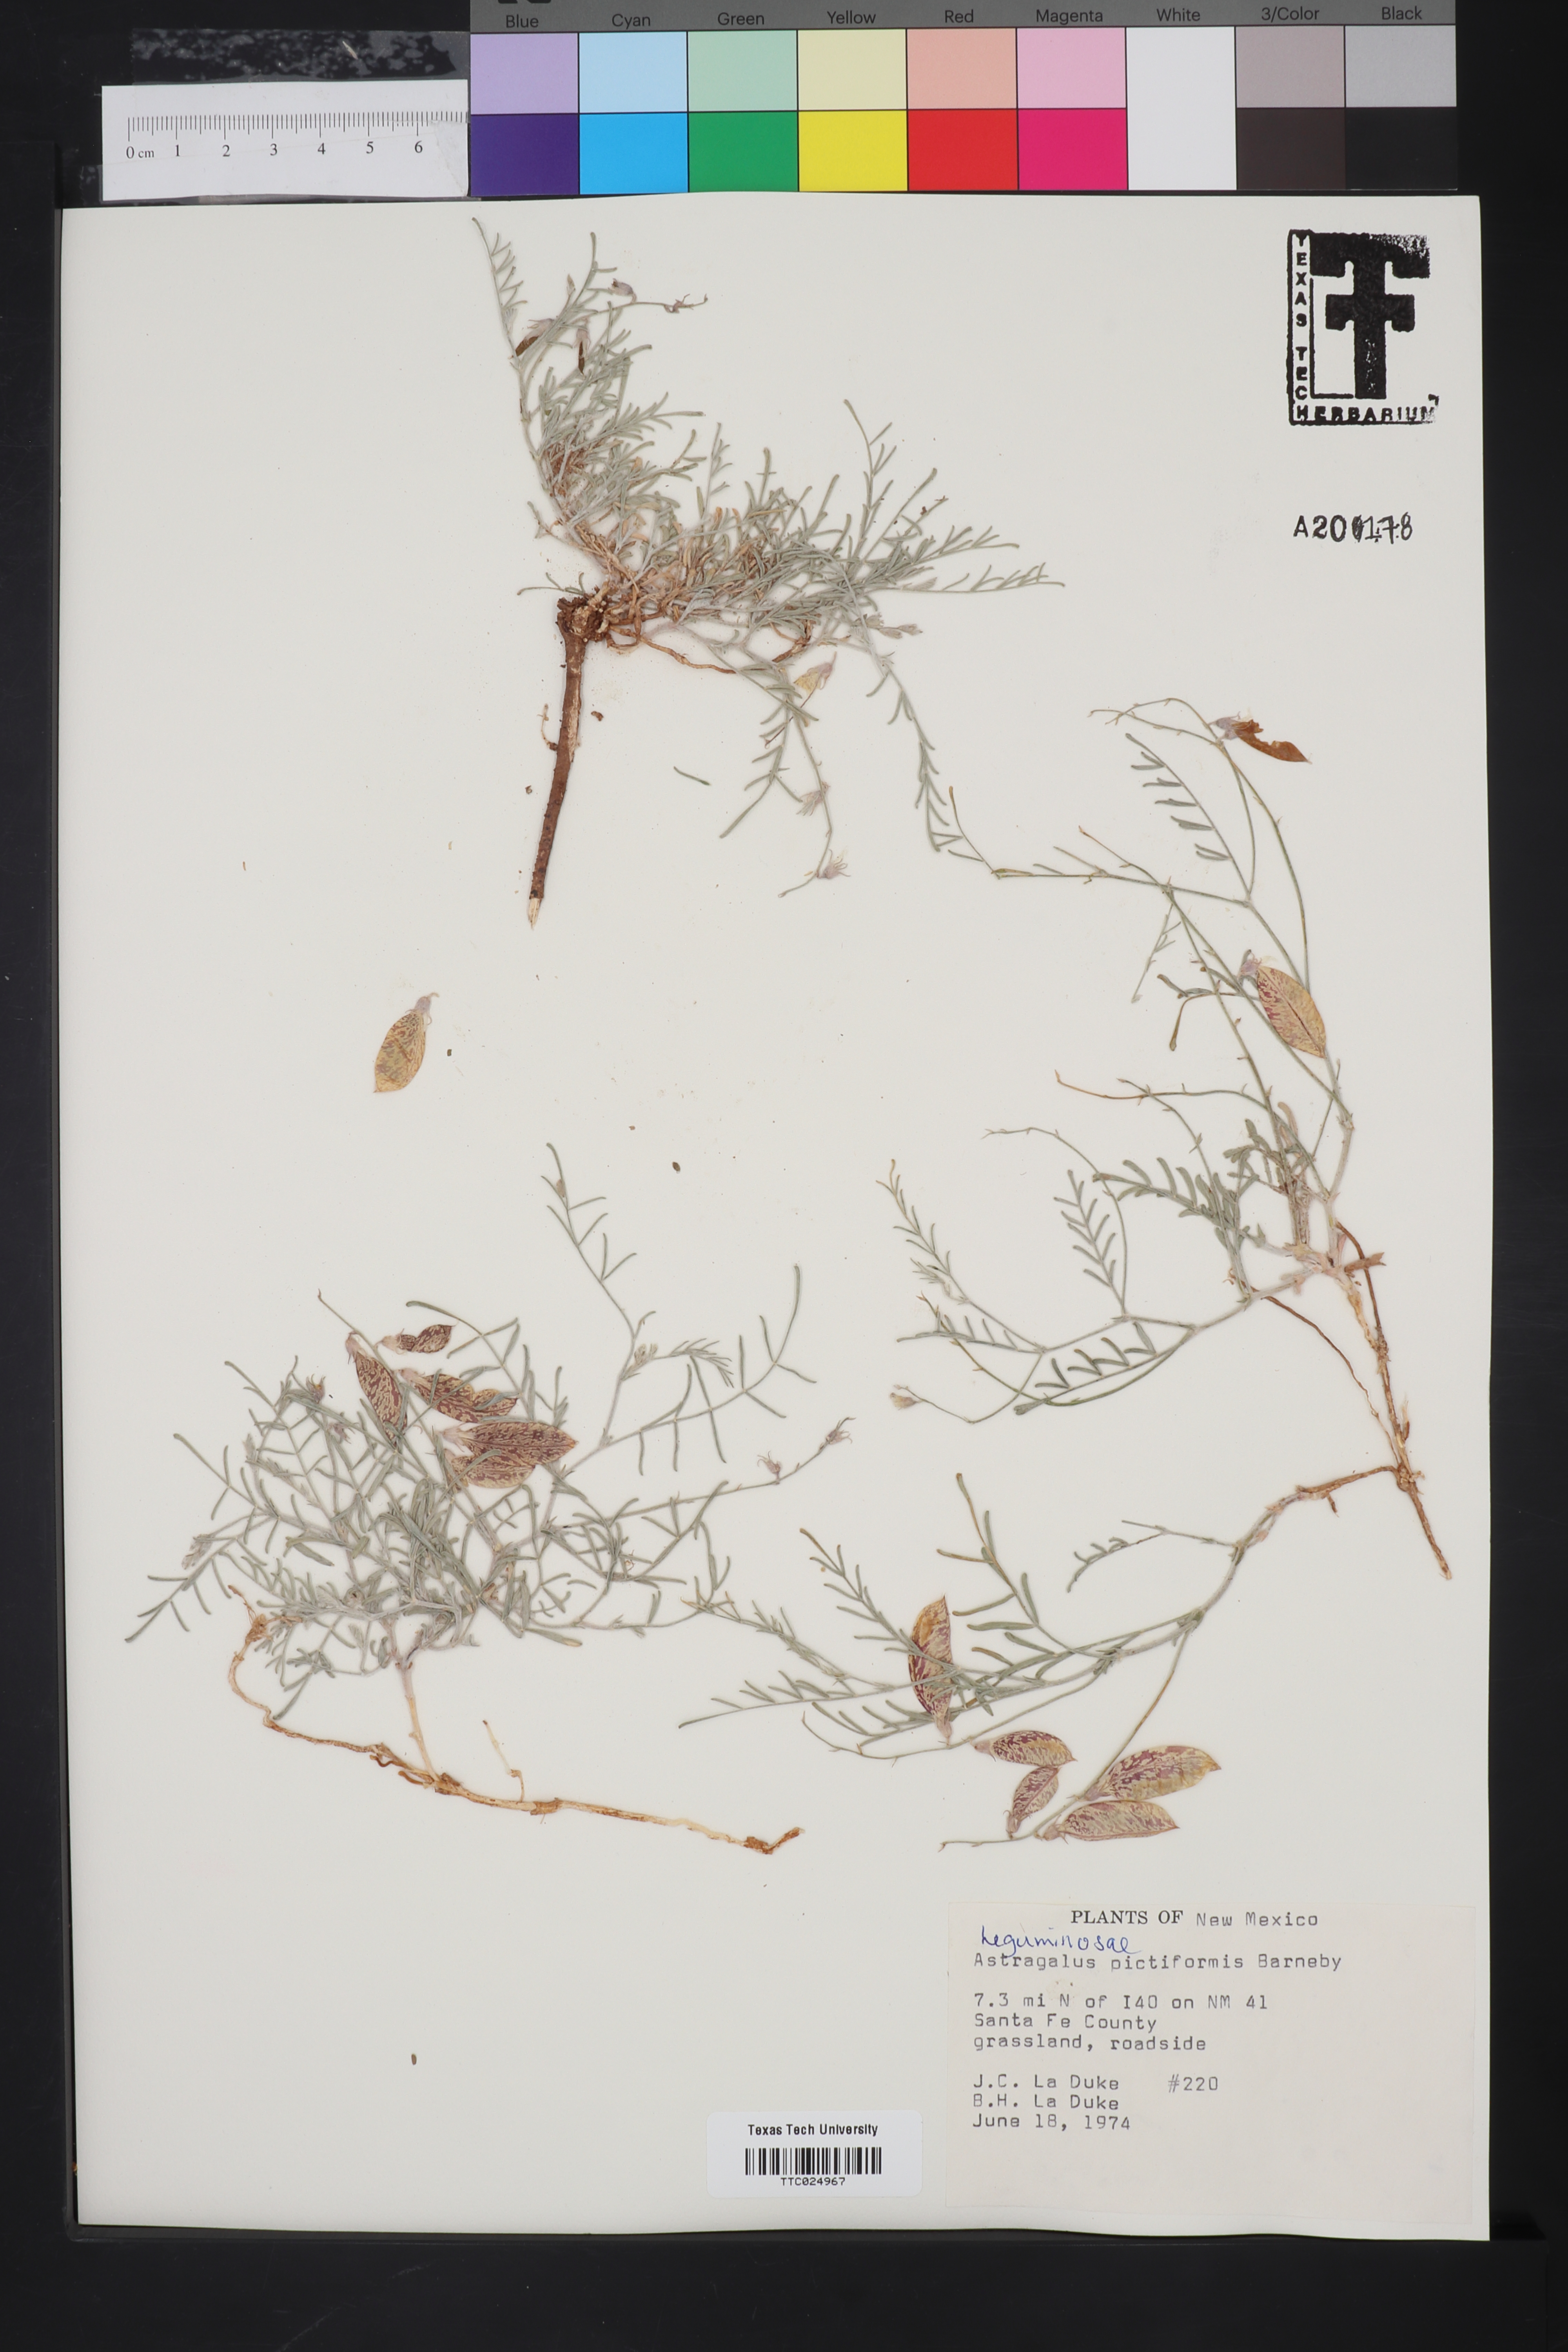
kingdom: Plantae
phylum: Tracheophyta
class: Magnoliopsida
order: Fabales
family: Fabaceae
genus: Astragalus
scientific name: Astragalus pictiformis
